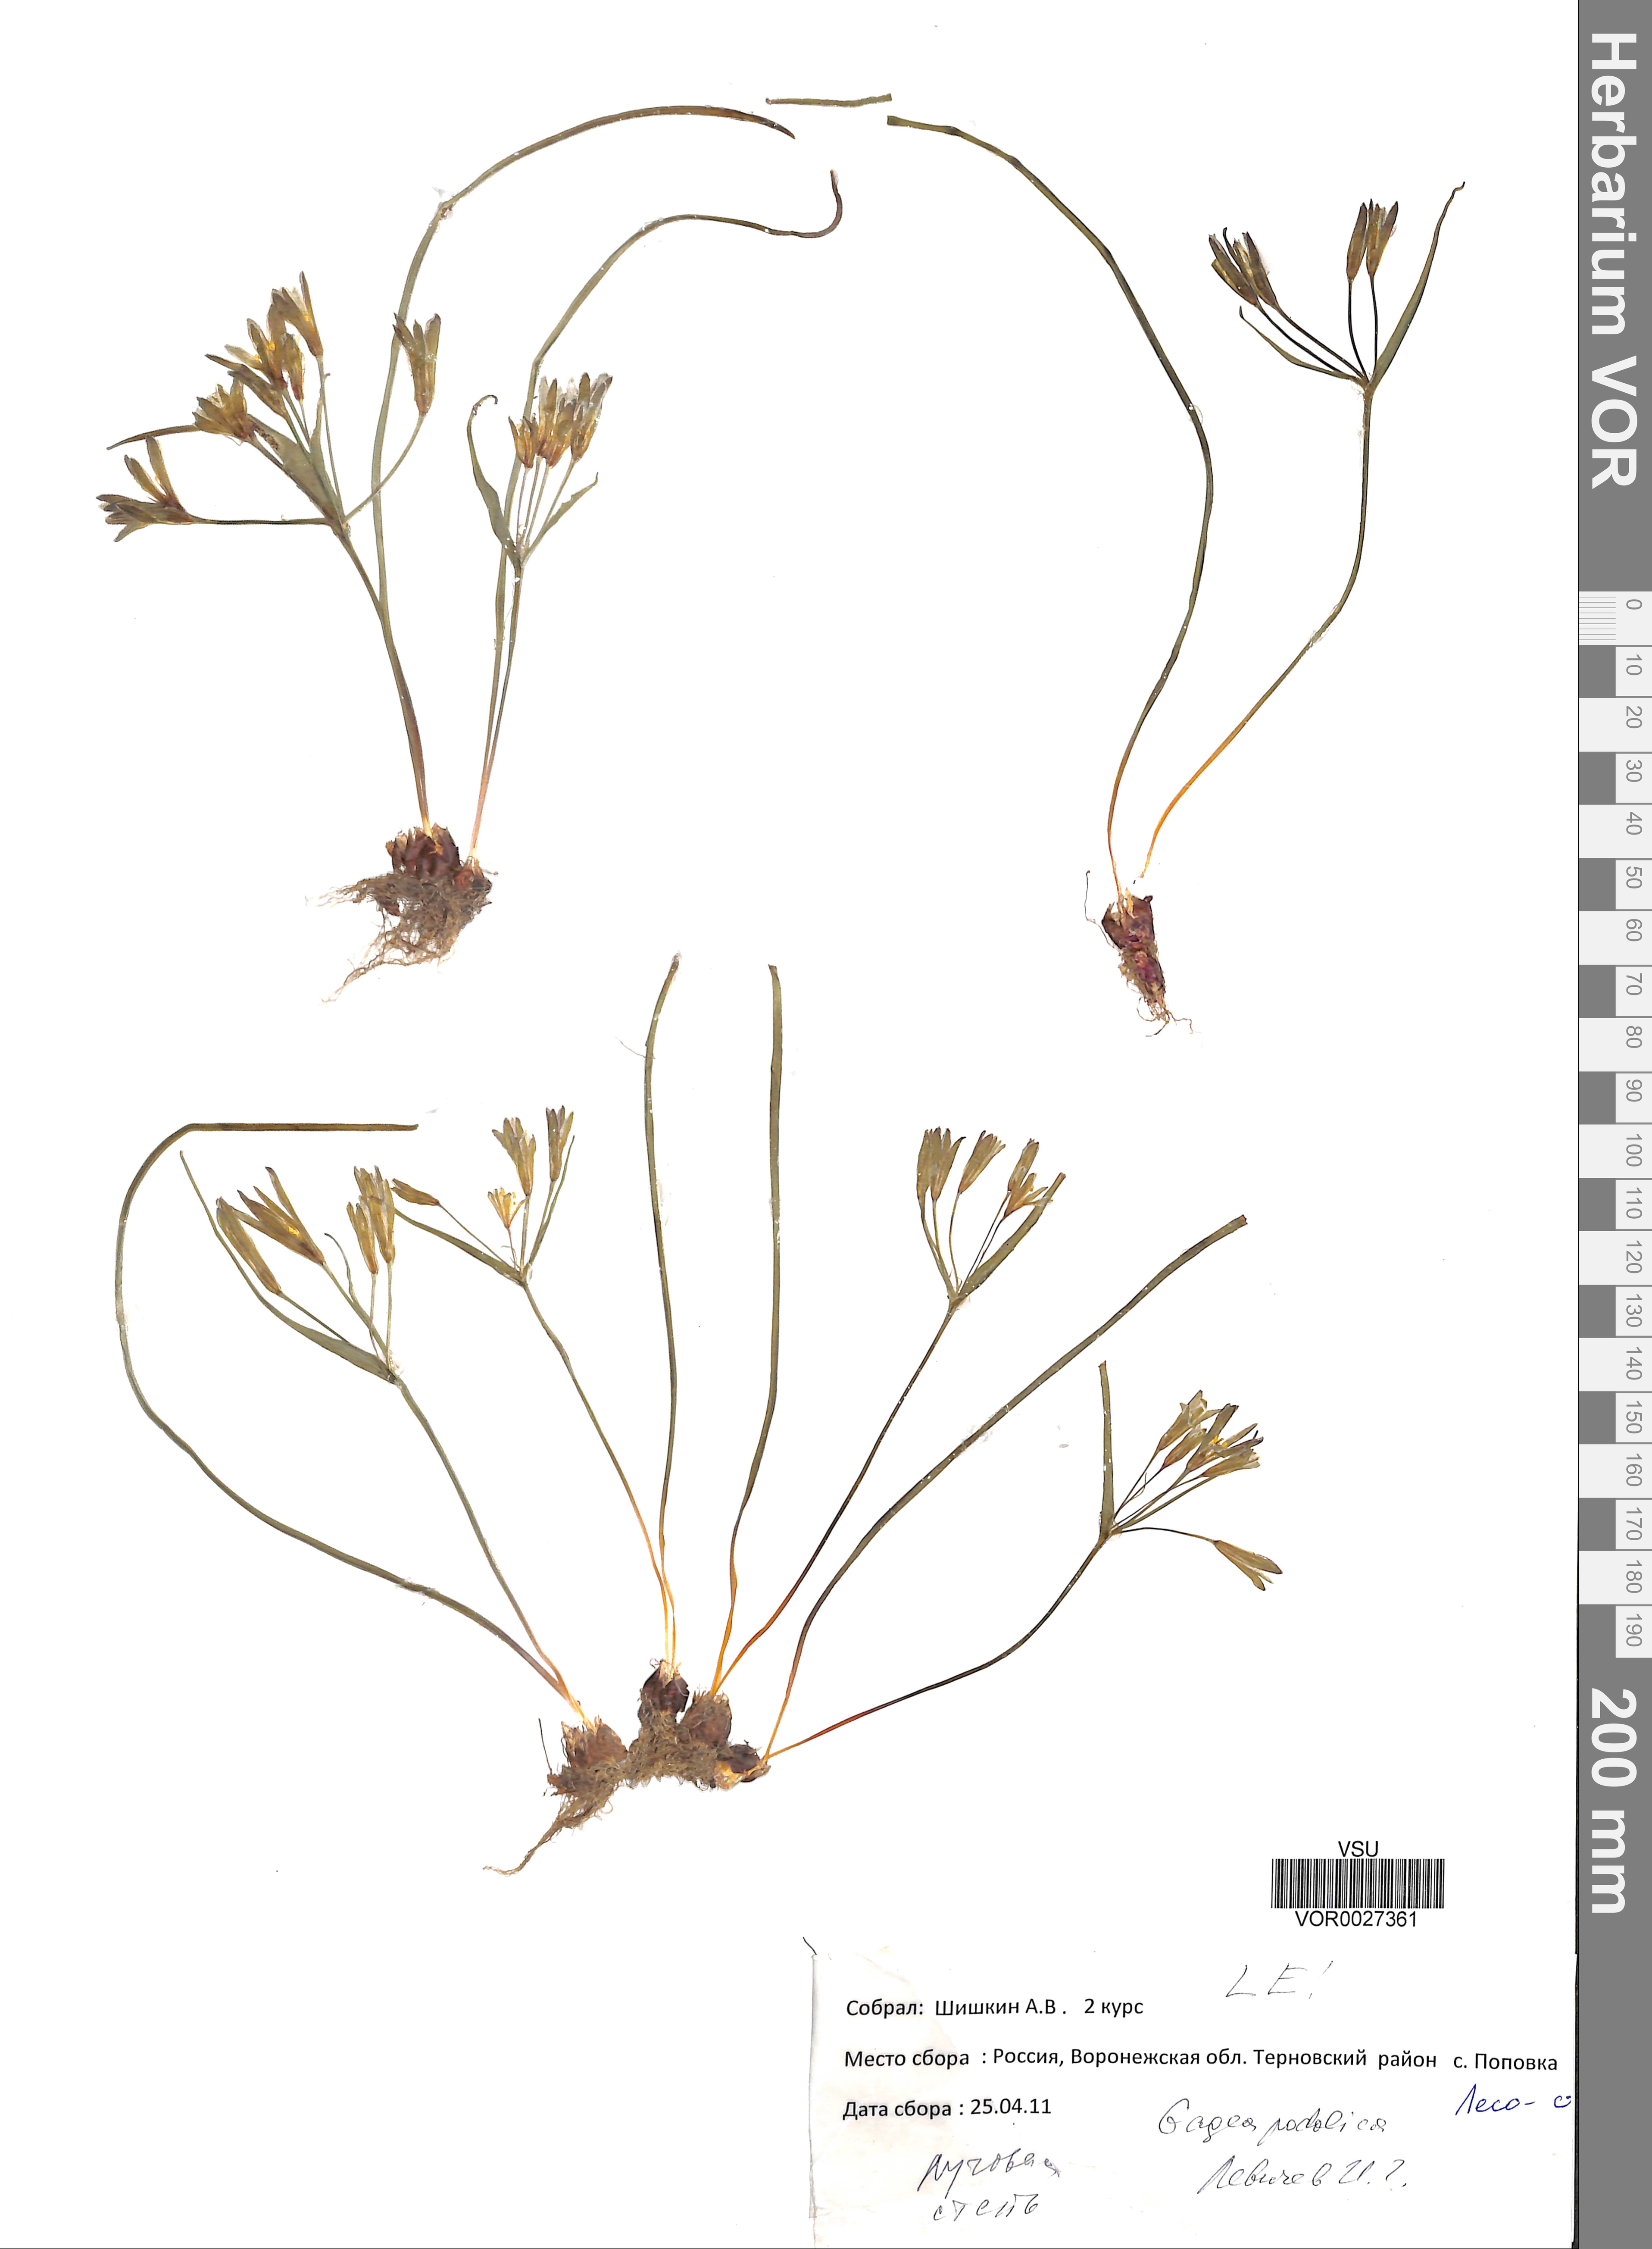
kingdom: Plantae
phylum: Tracheophyta
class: Liliopsida
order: Liliales
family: Liliaceae
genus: Gagea
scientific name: Gagea podolica
